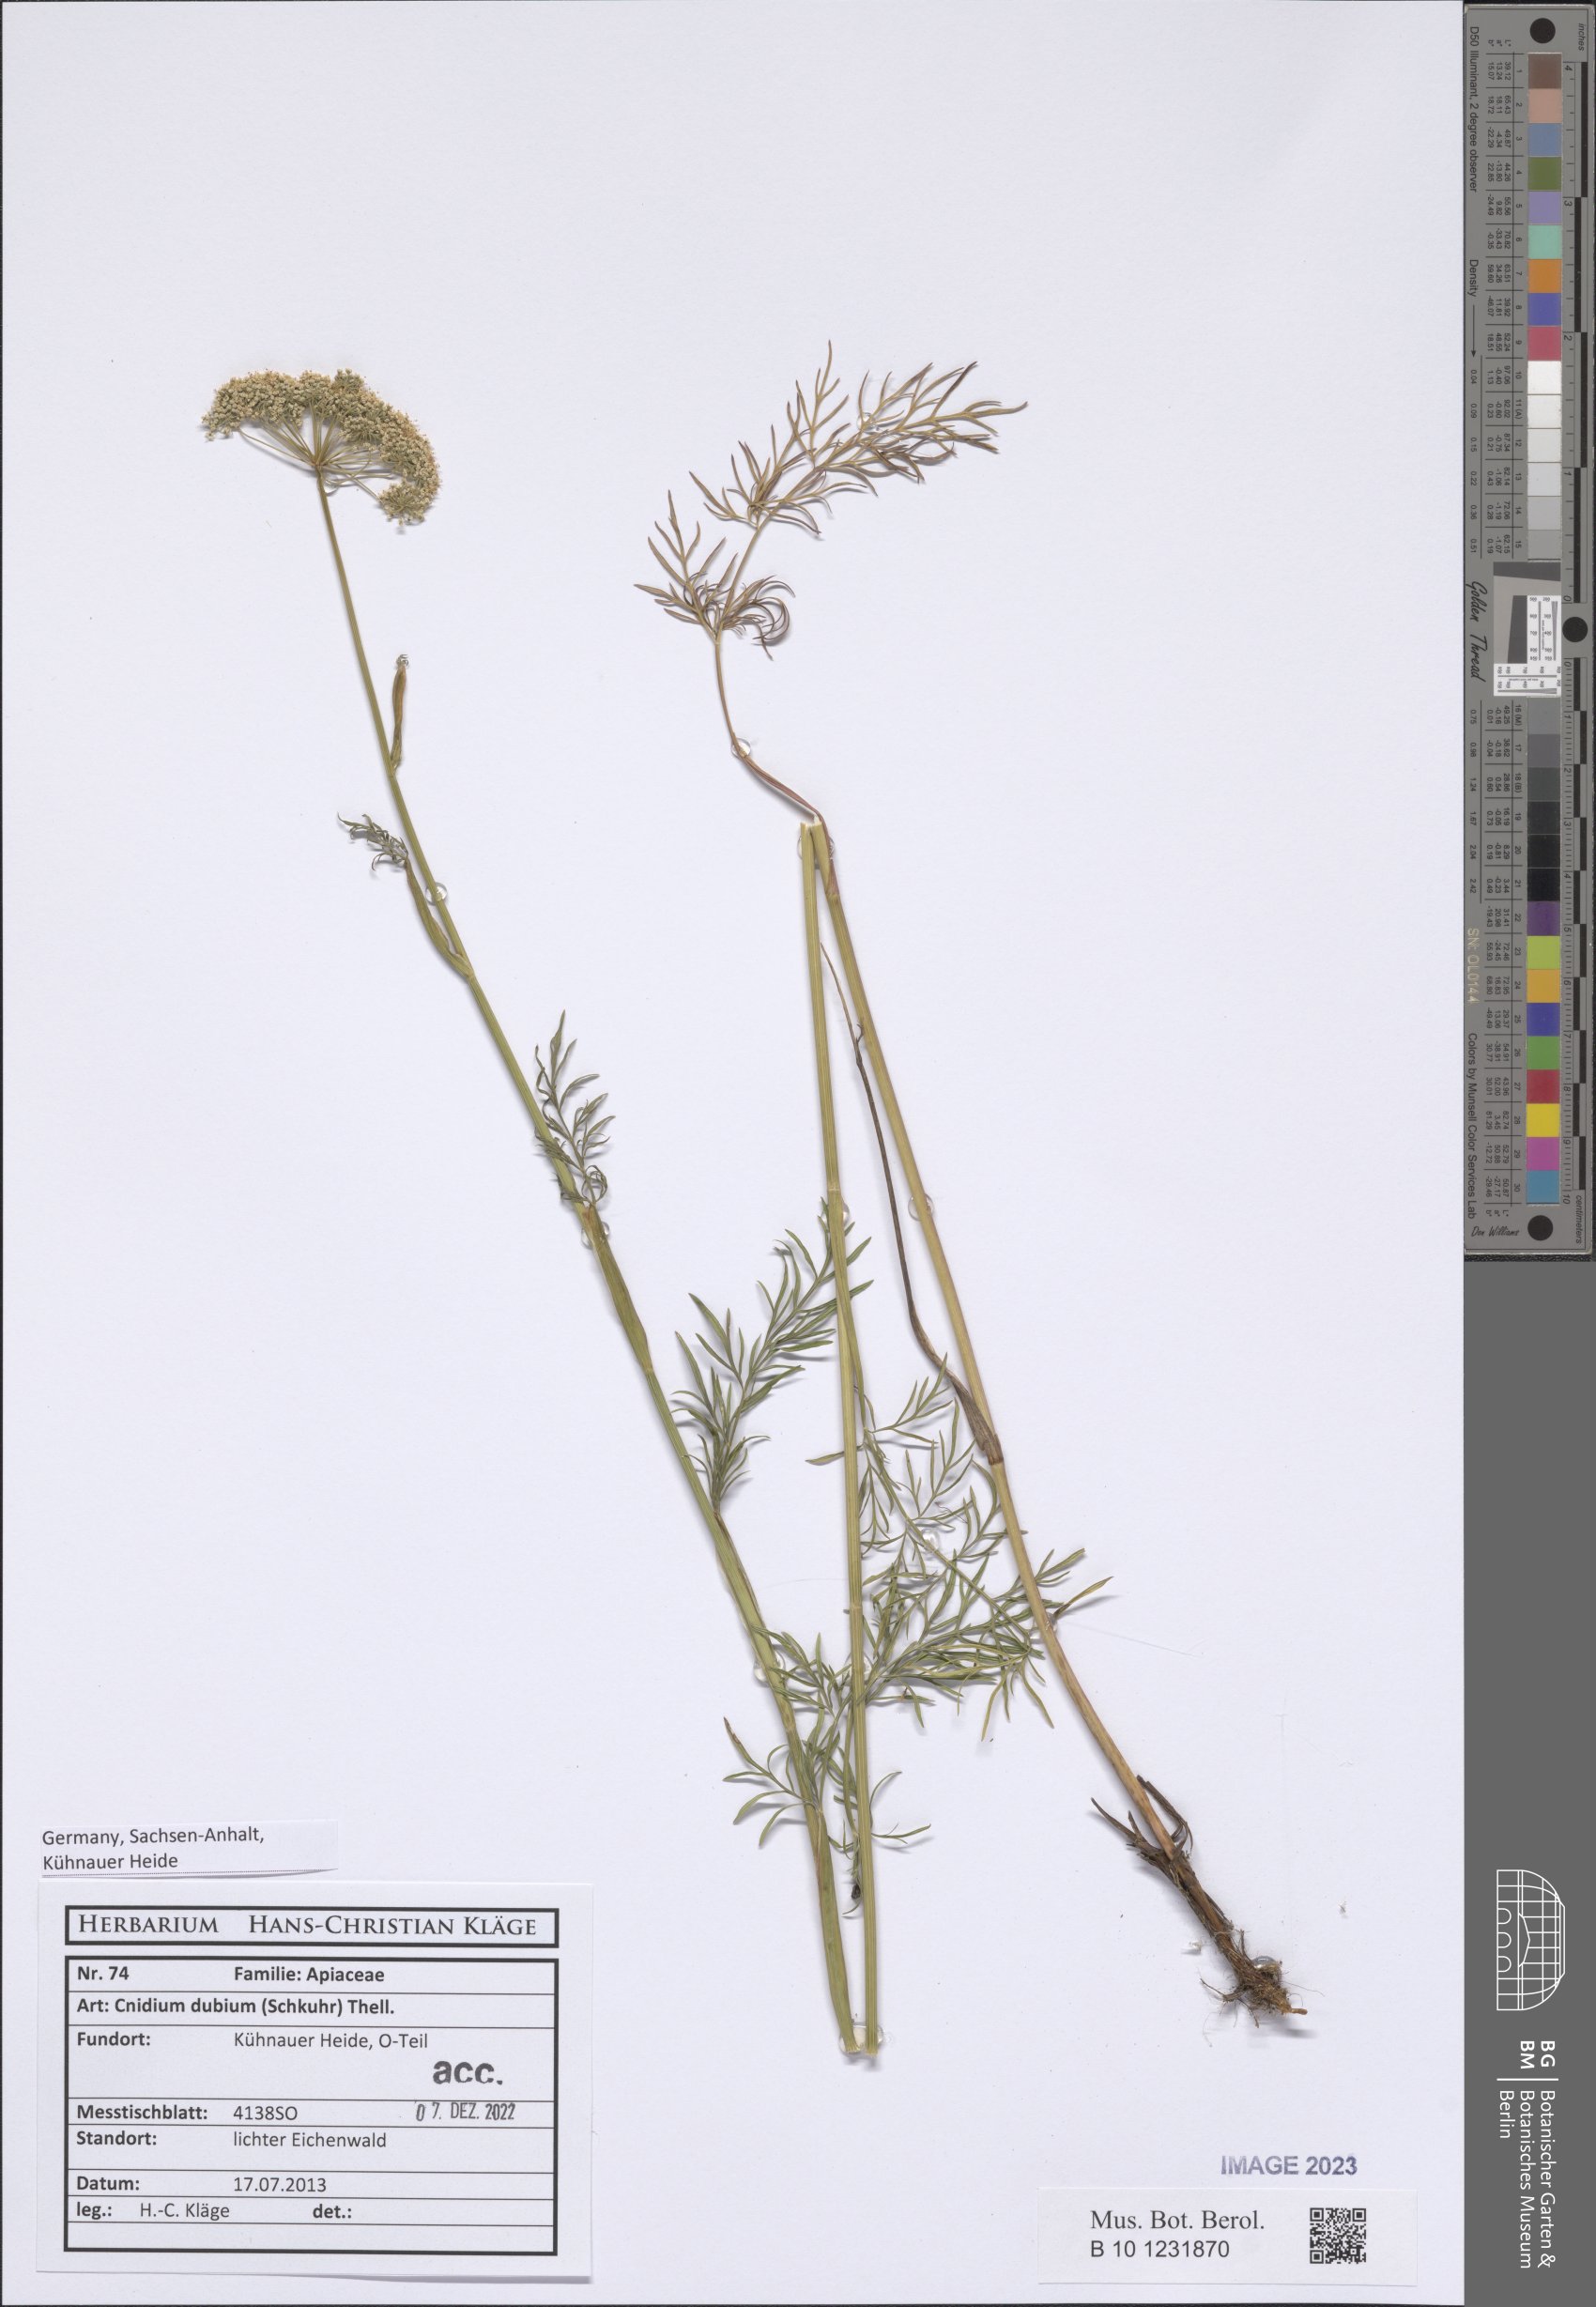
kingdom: Plantae
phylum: Tracheophyta
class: Magnoliopsida
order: Apiales
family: Apiaceae
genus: Kadenia
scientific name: Kadenia dubia
